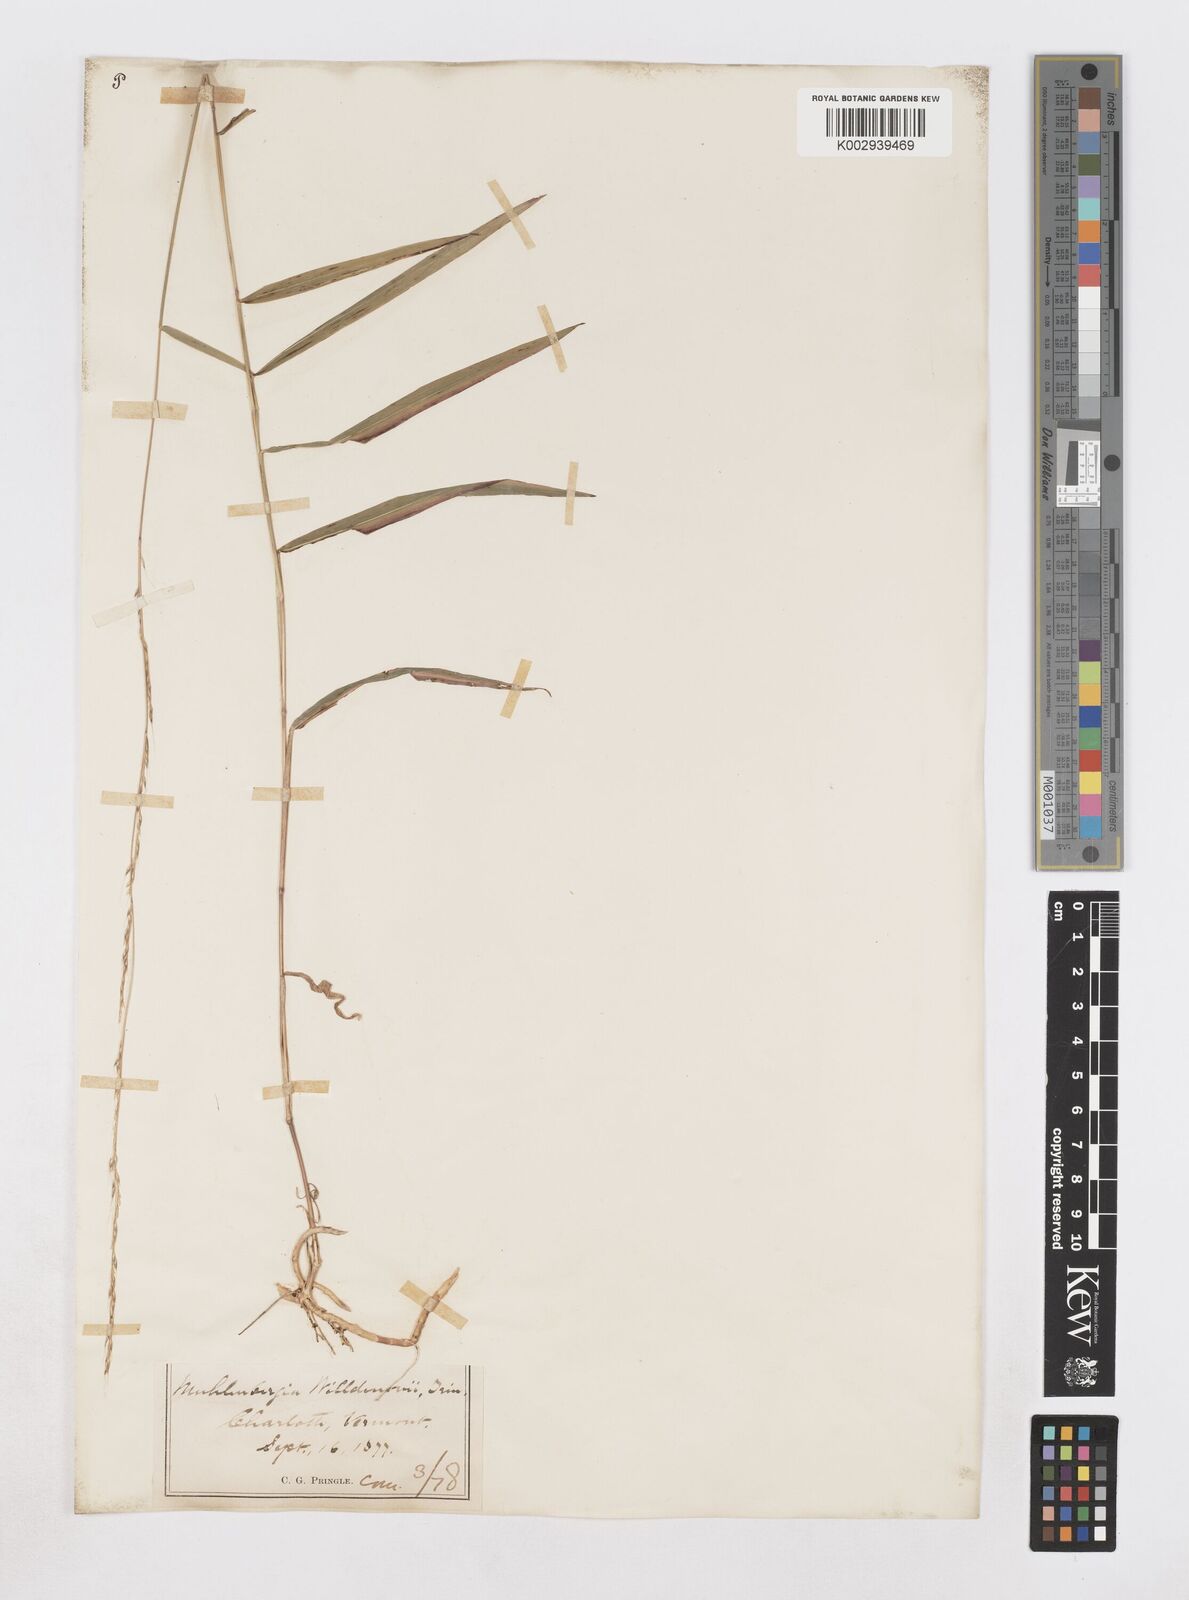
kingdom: Plantae
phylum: Tracheophyta
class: Liliopsida
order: Poales
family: Poaceae
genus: Muhlenbergia
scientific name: Muhlenbergia tenuiflora
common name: Slender muhly
